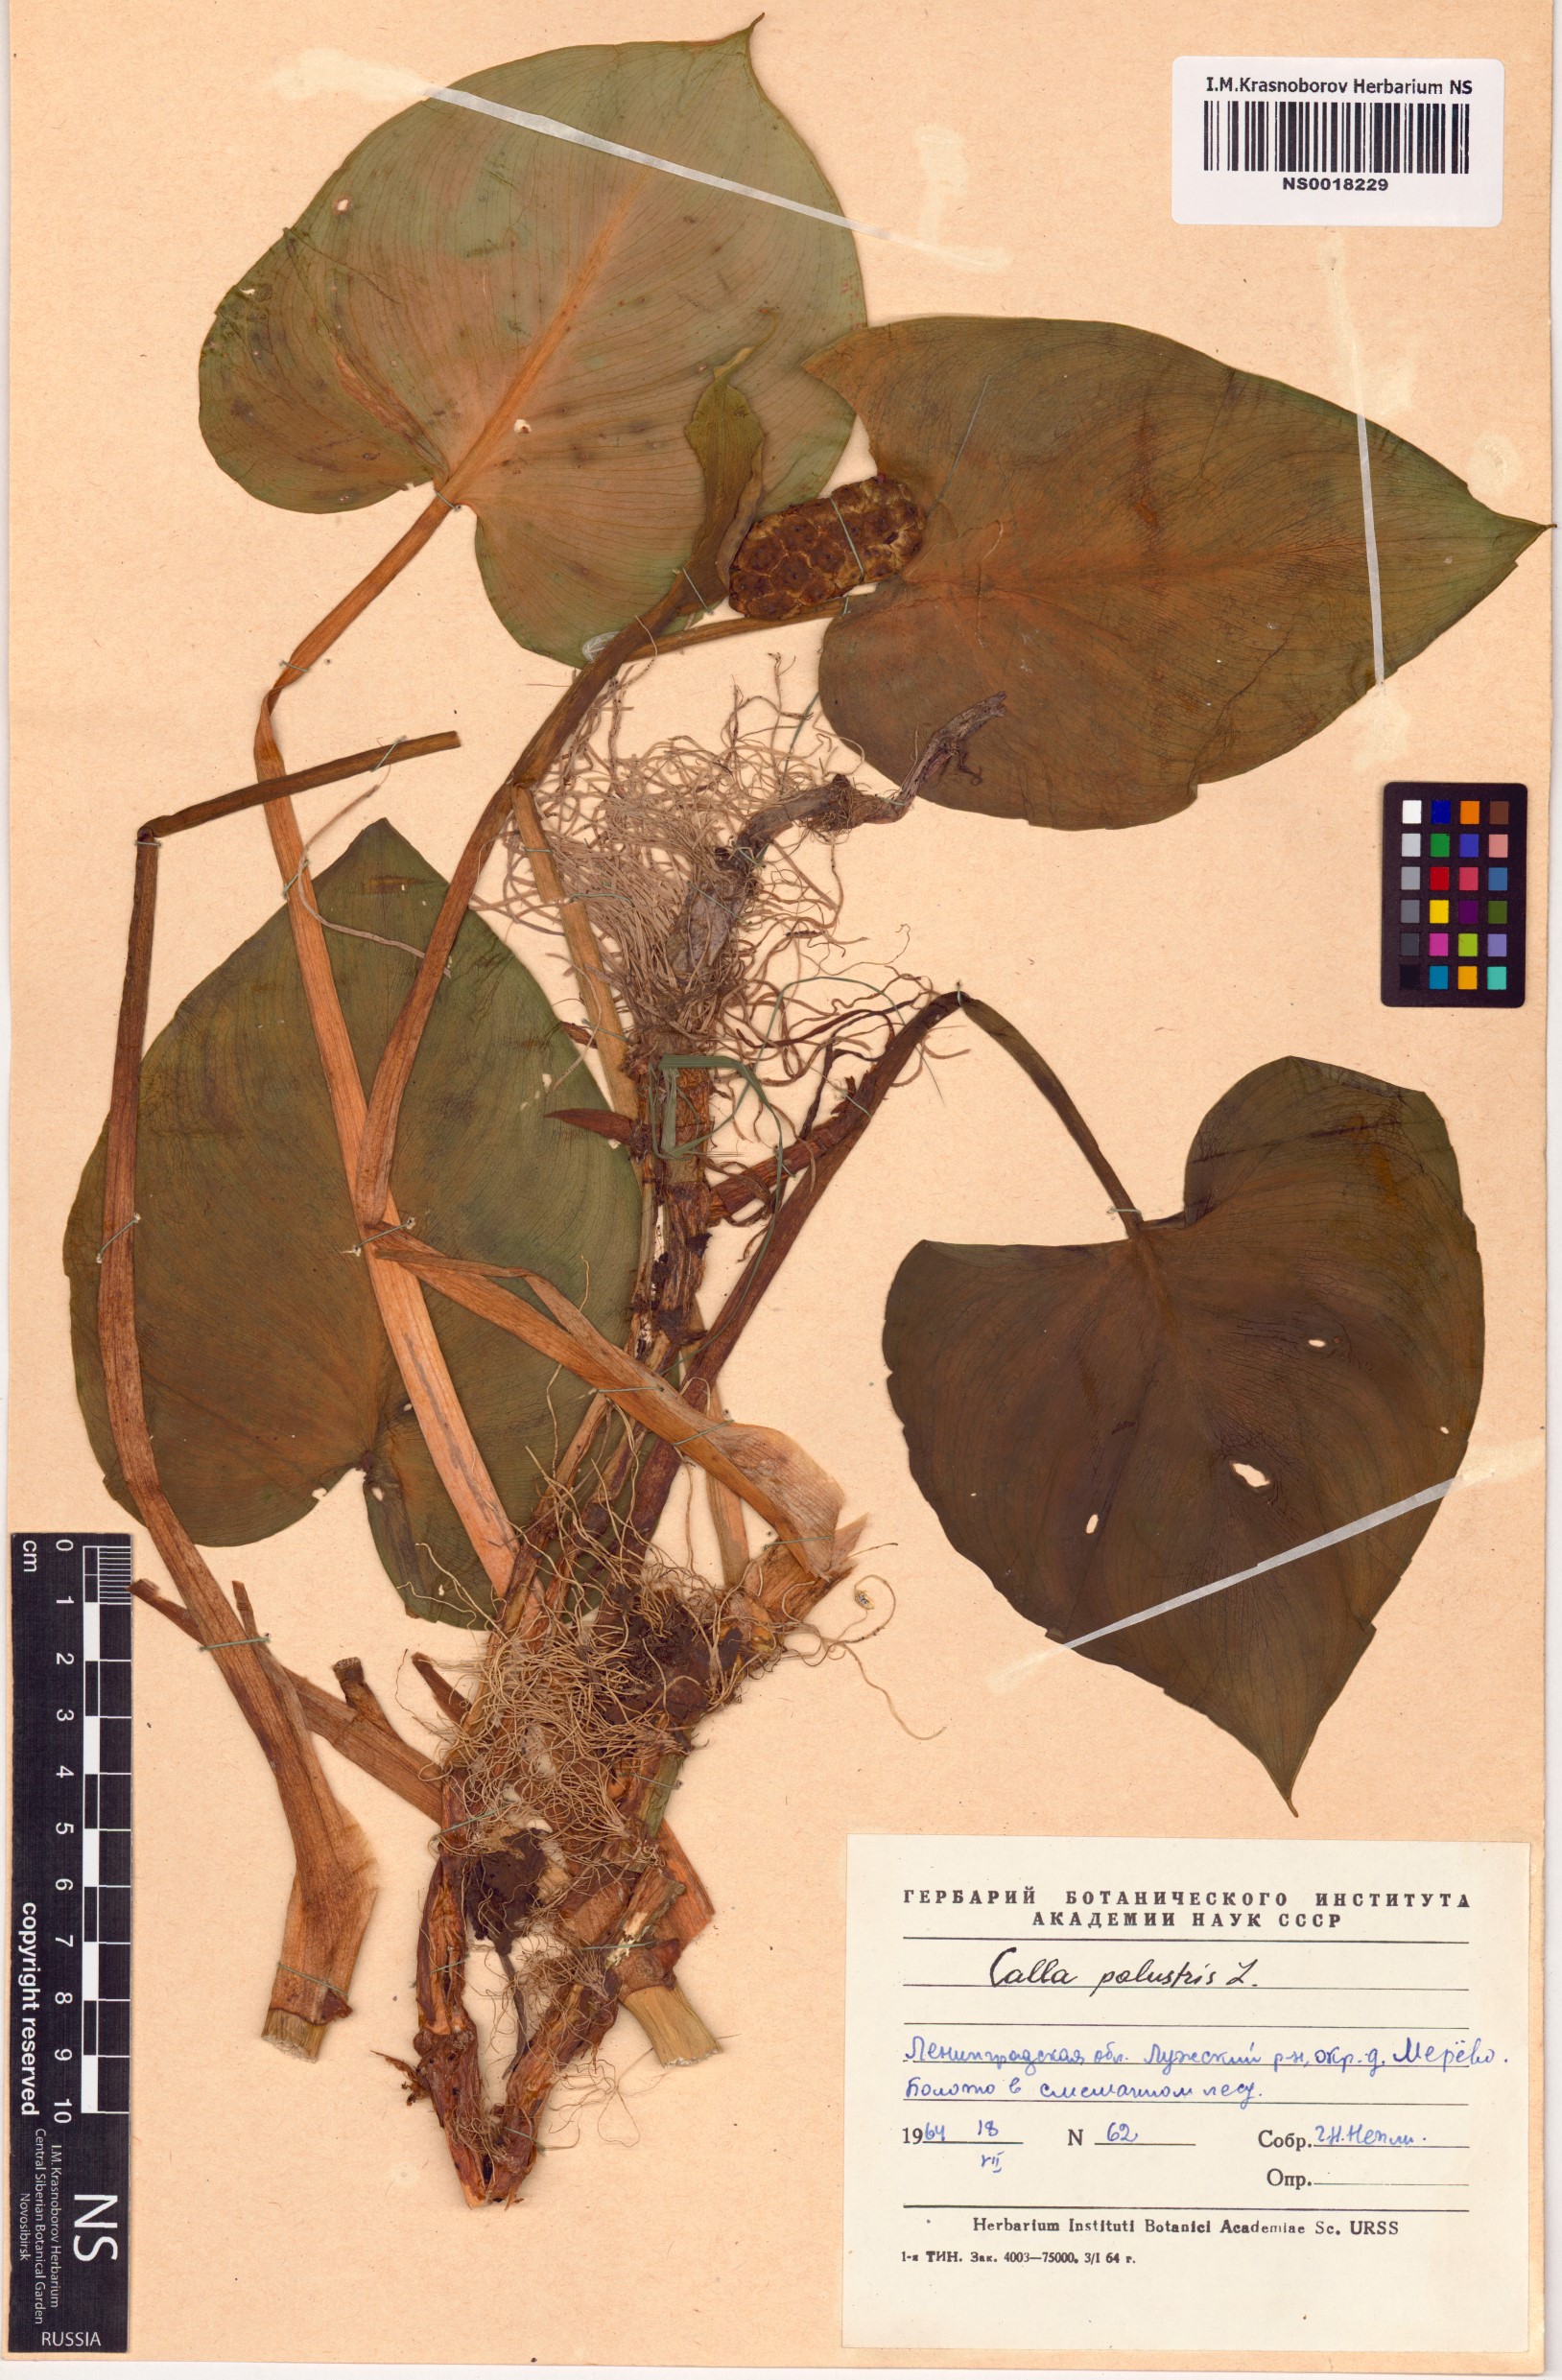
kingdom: Plantae
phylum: Tracheophyta
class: Liliopsida
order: Alismatales
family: Araceae
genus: Calla
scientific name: Calla palustris
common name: Bog arum
